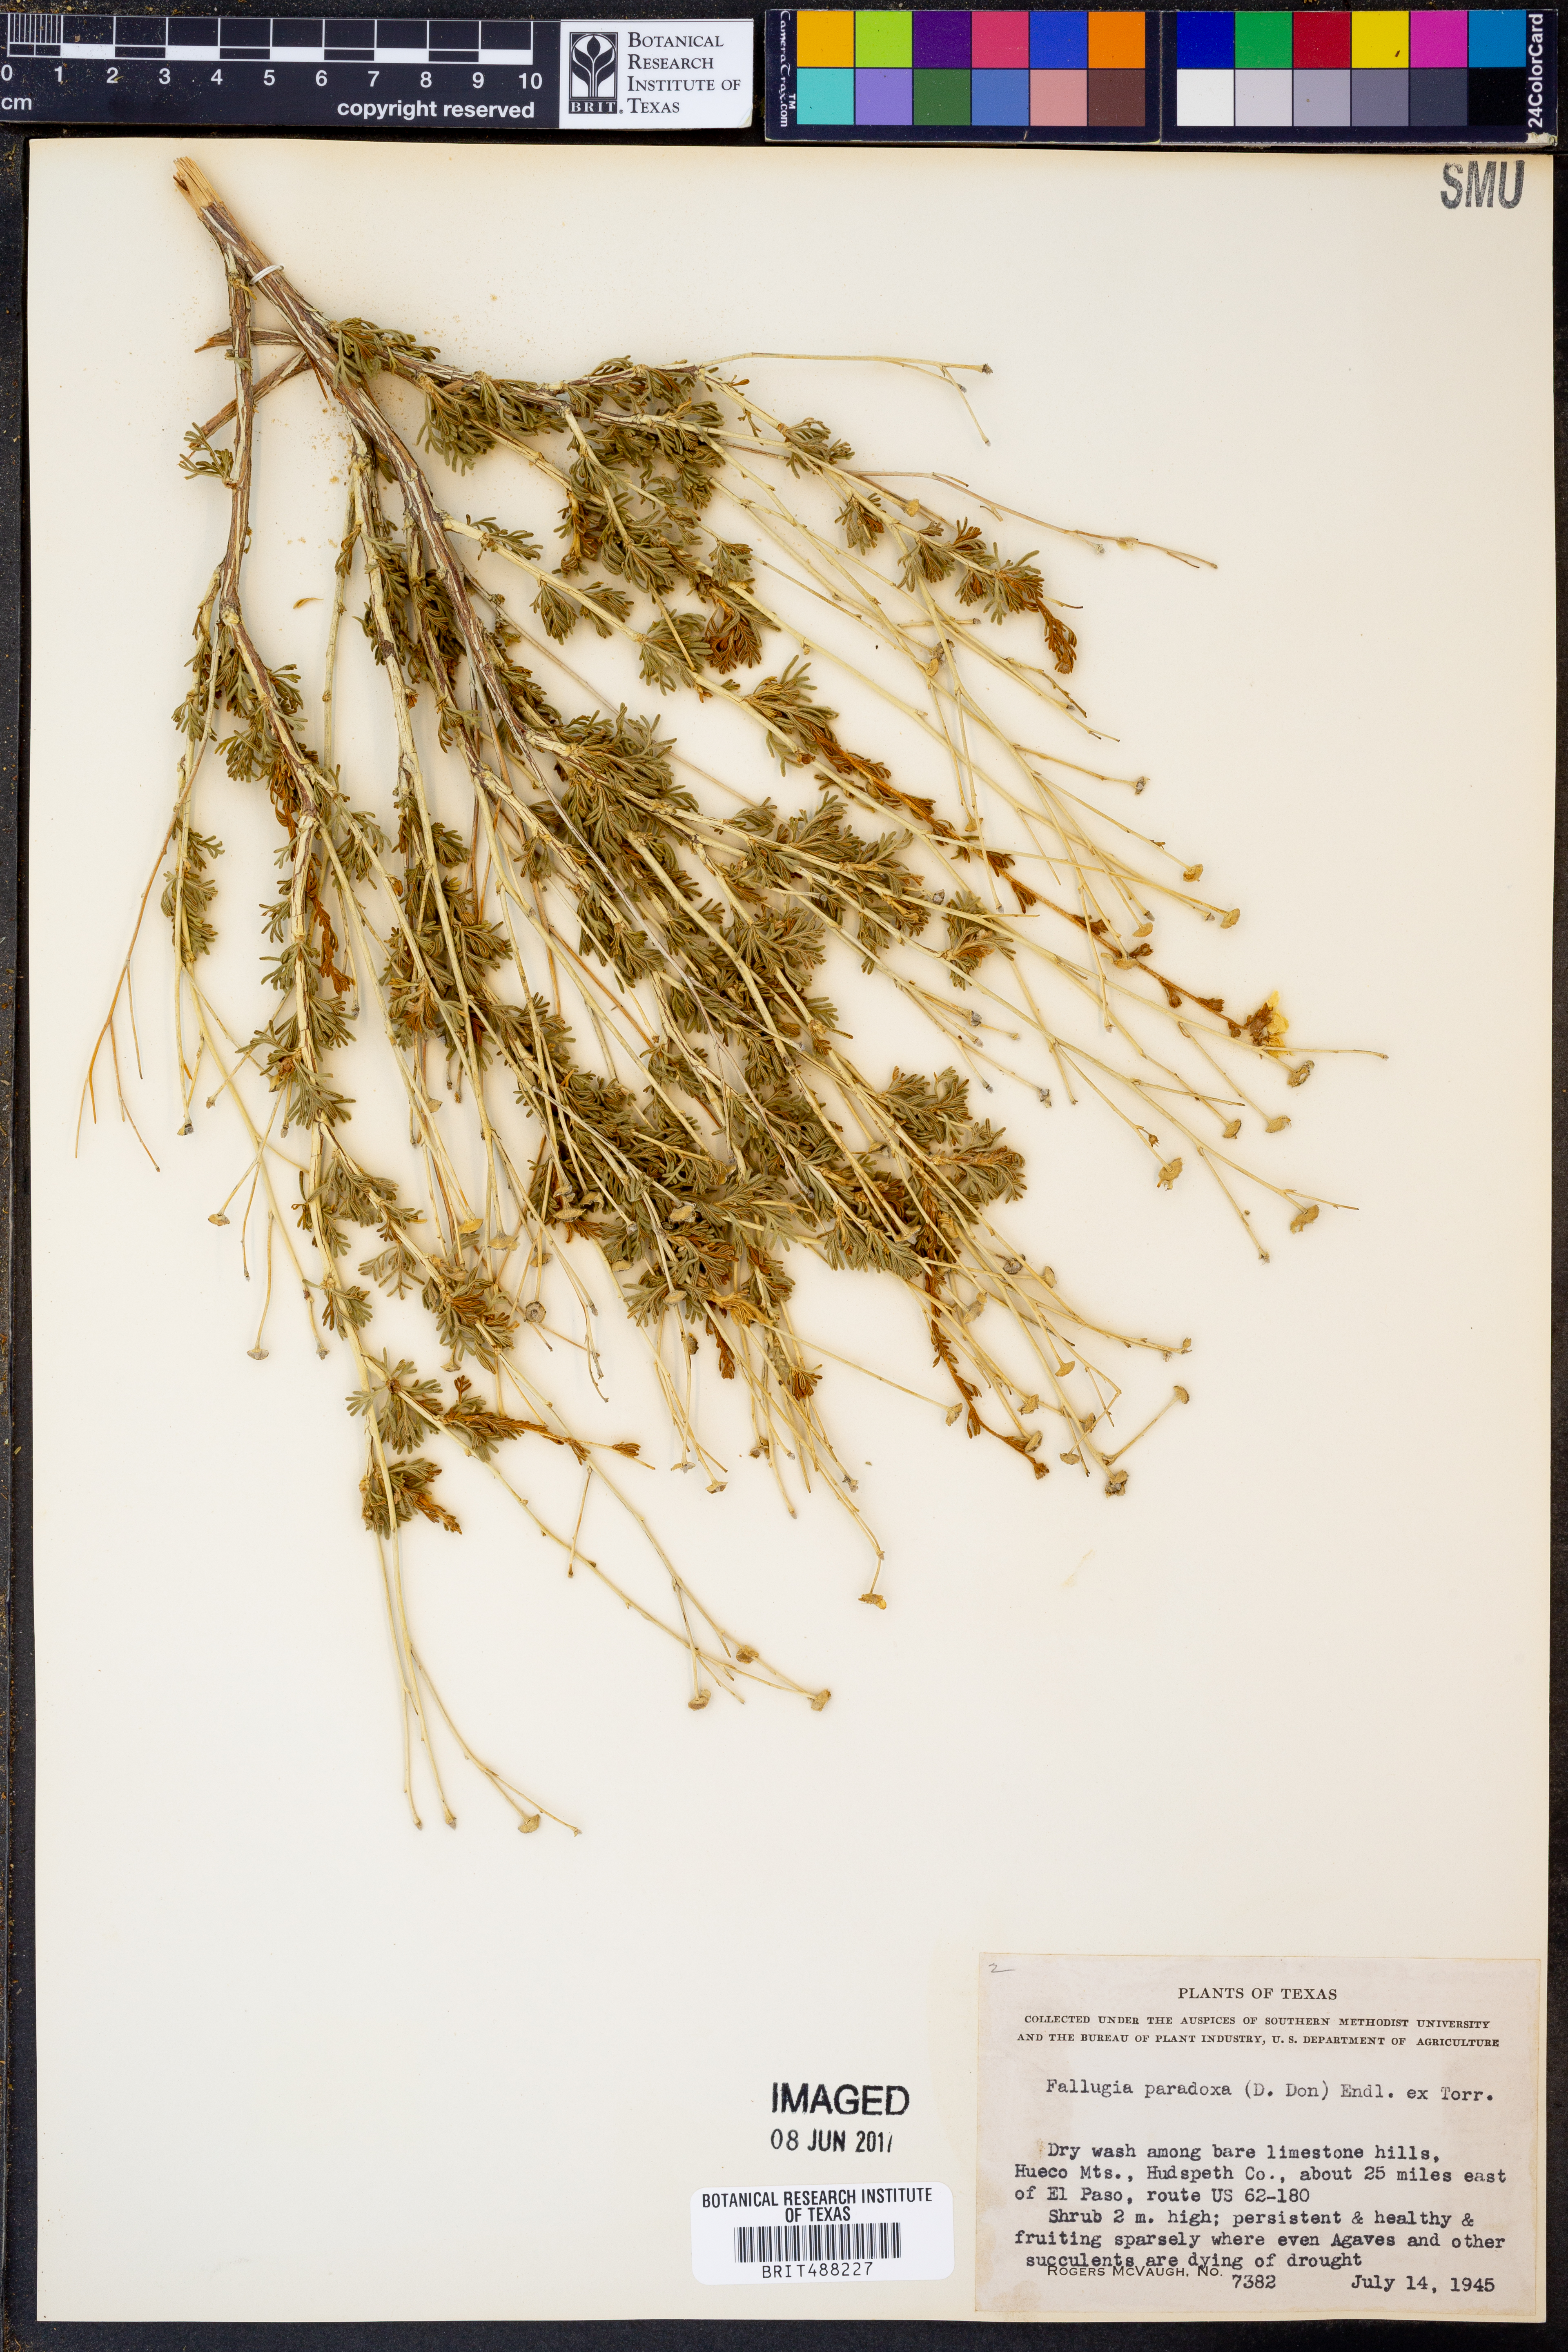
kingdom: Plantae
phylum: Tracheophyta
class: Magnoliopsida
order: Rosales
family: Rosaceae
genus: Fallugia
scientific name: Fallugia paradoxa
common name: Apache-plume
